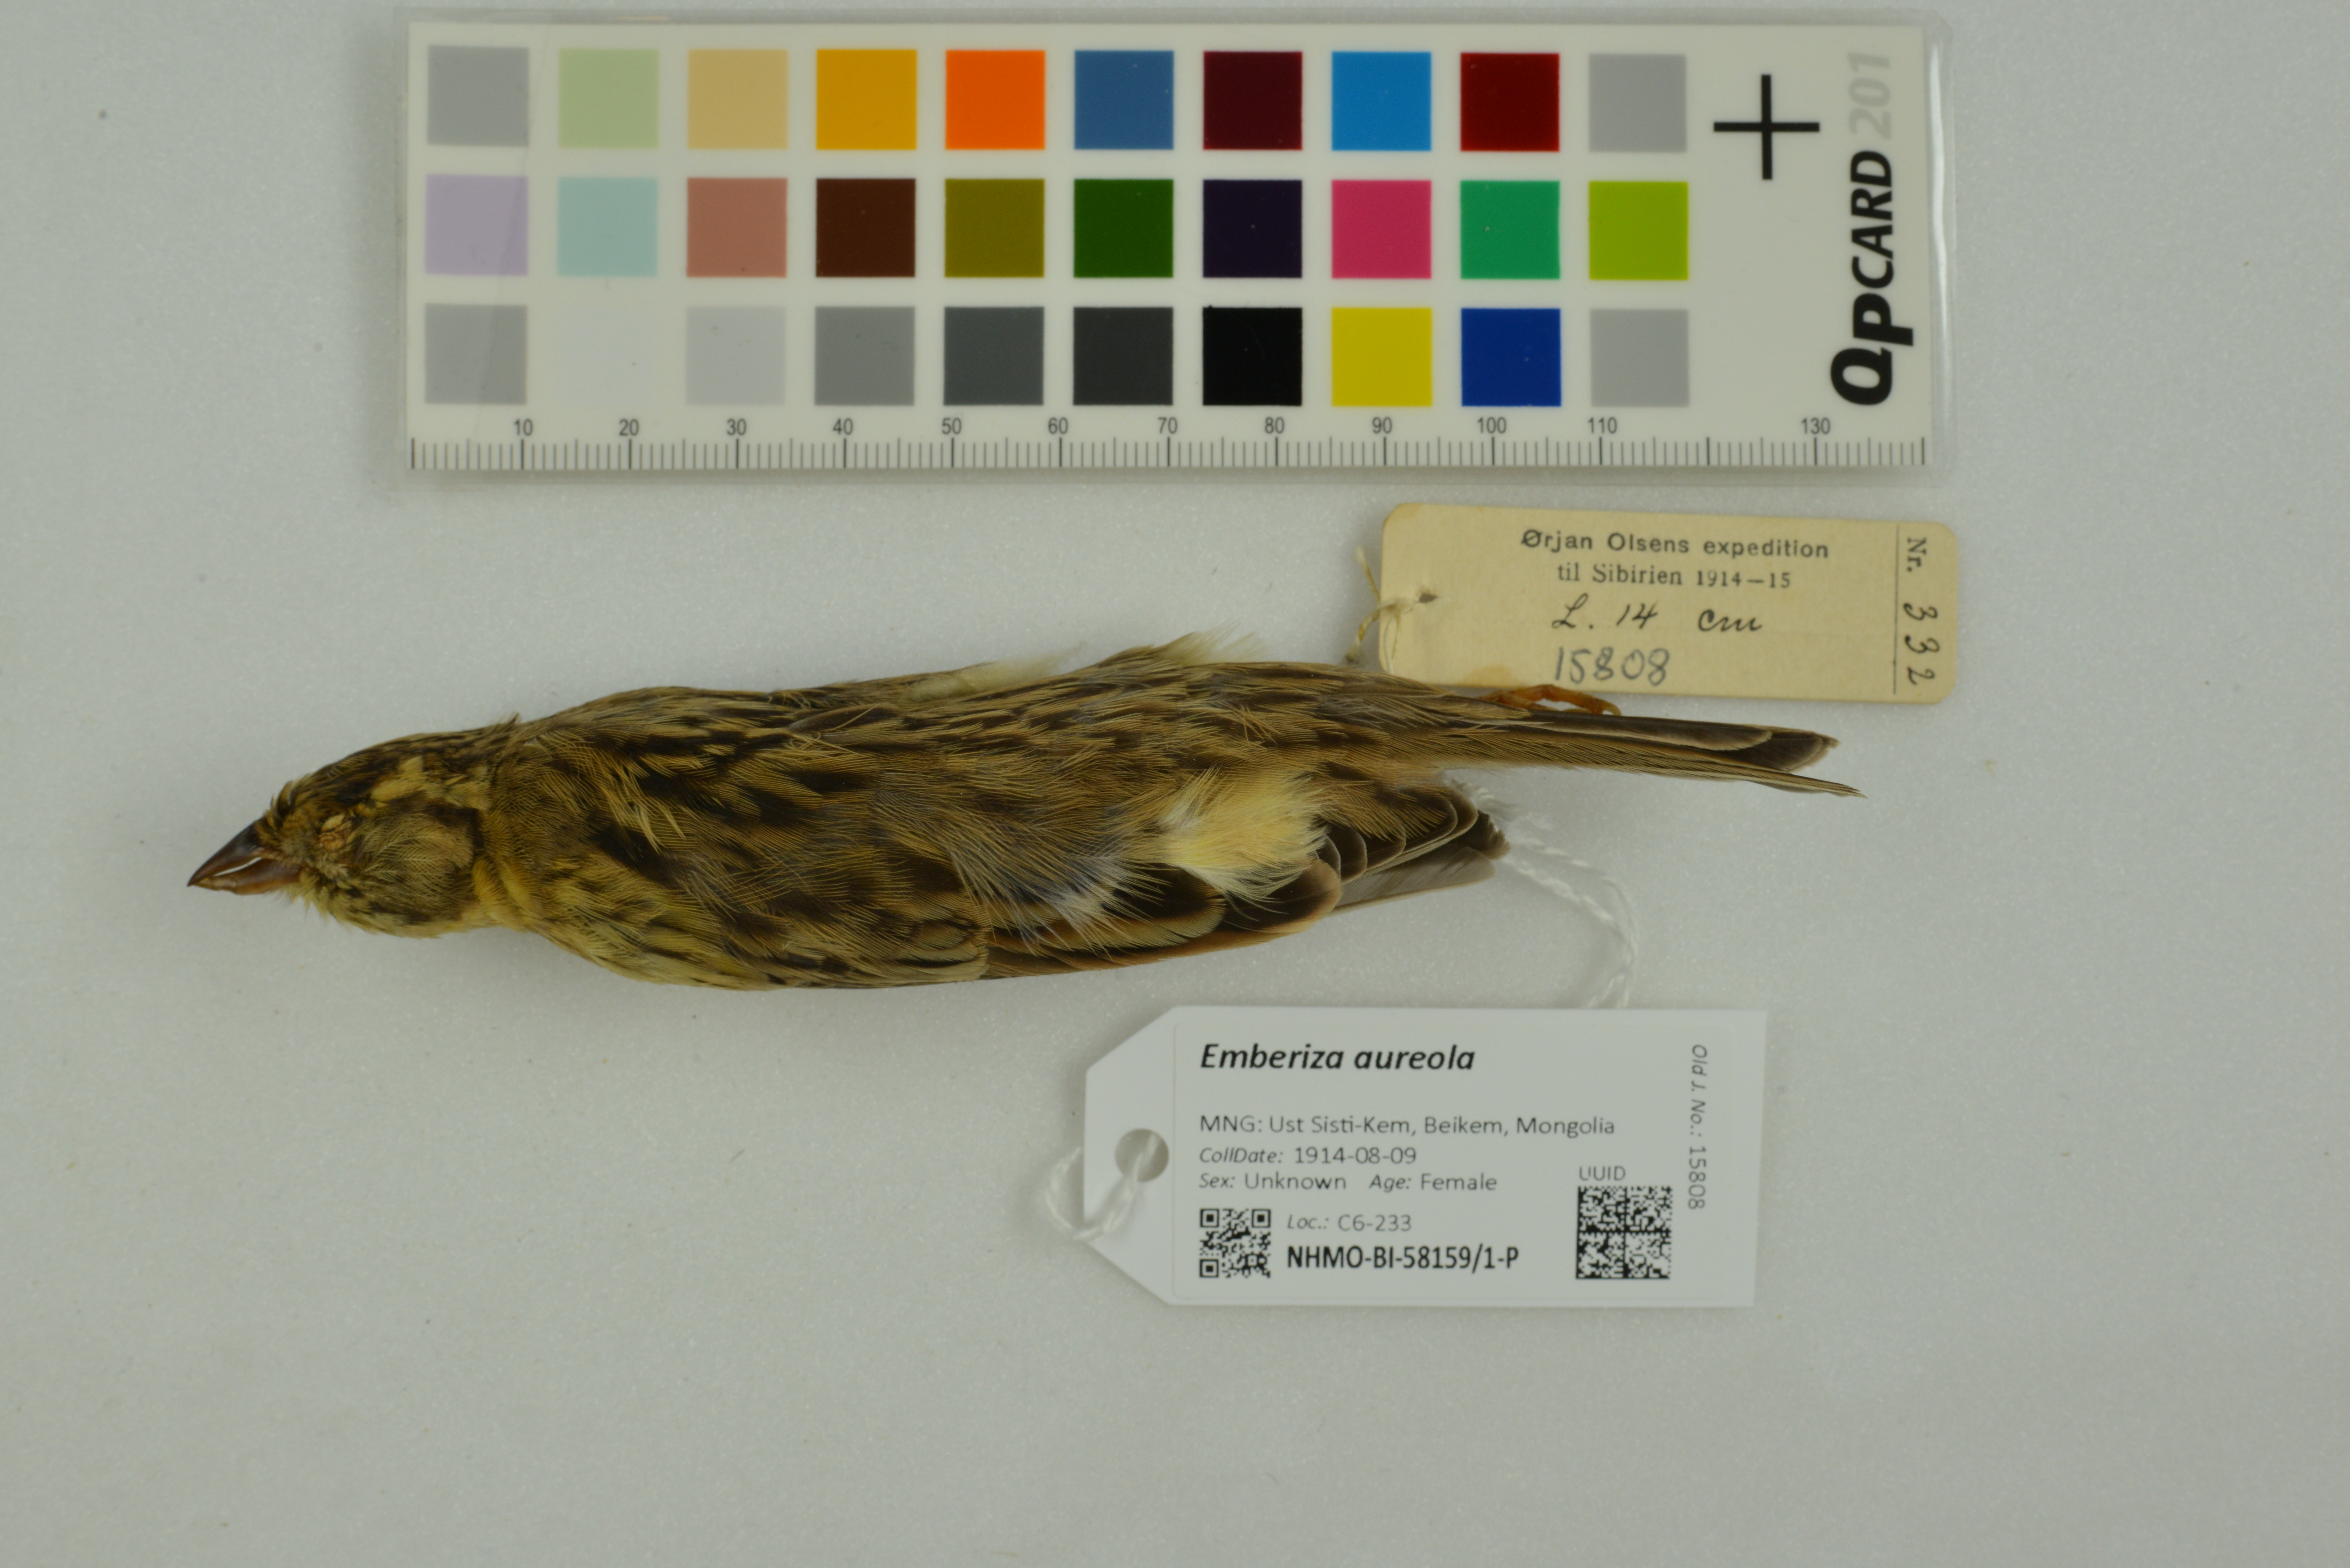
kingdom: Animalia
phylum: Chordata
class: Aves
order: Passeriformes
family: Emberizidae
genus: Emberiza
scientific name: Emberiza aureola
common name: Yellow-breasted bunting
